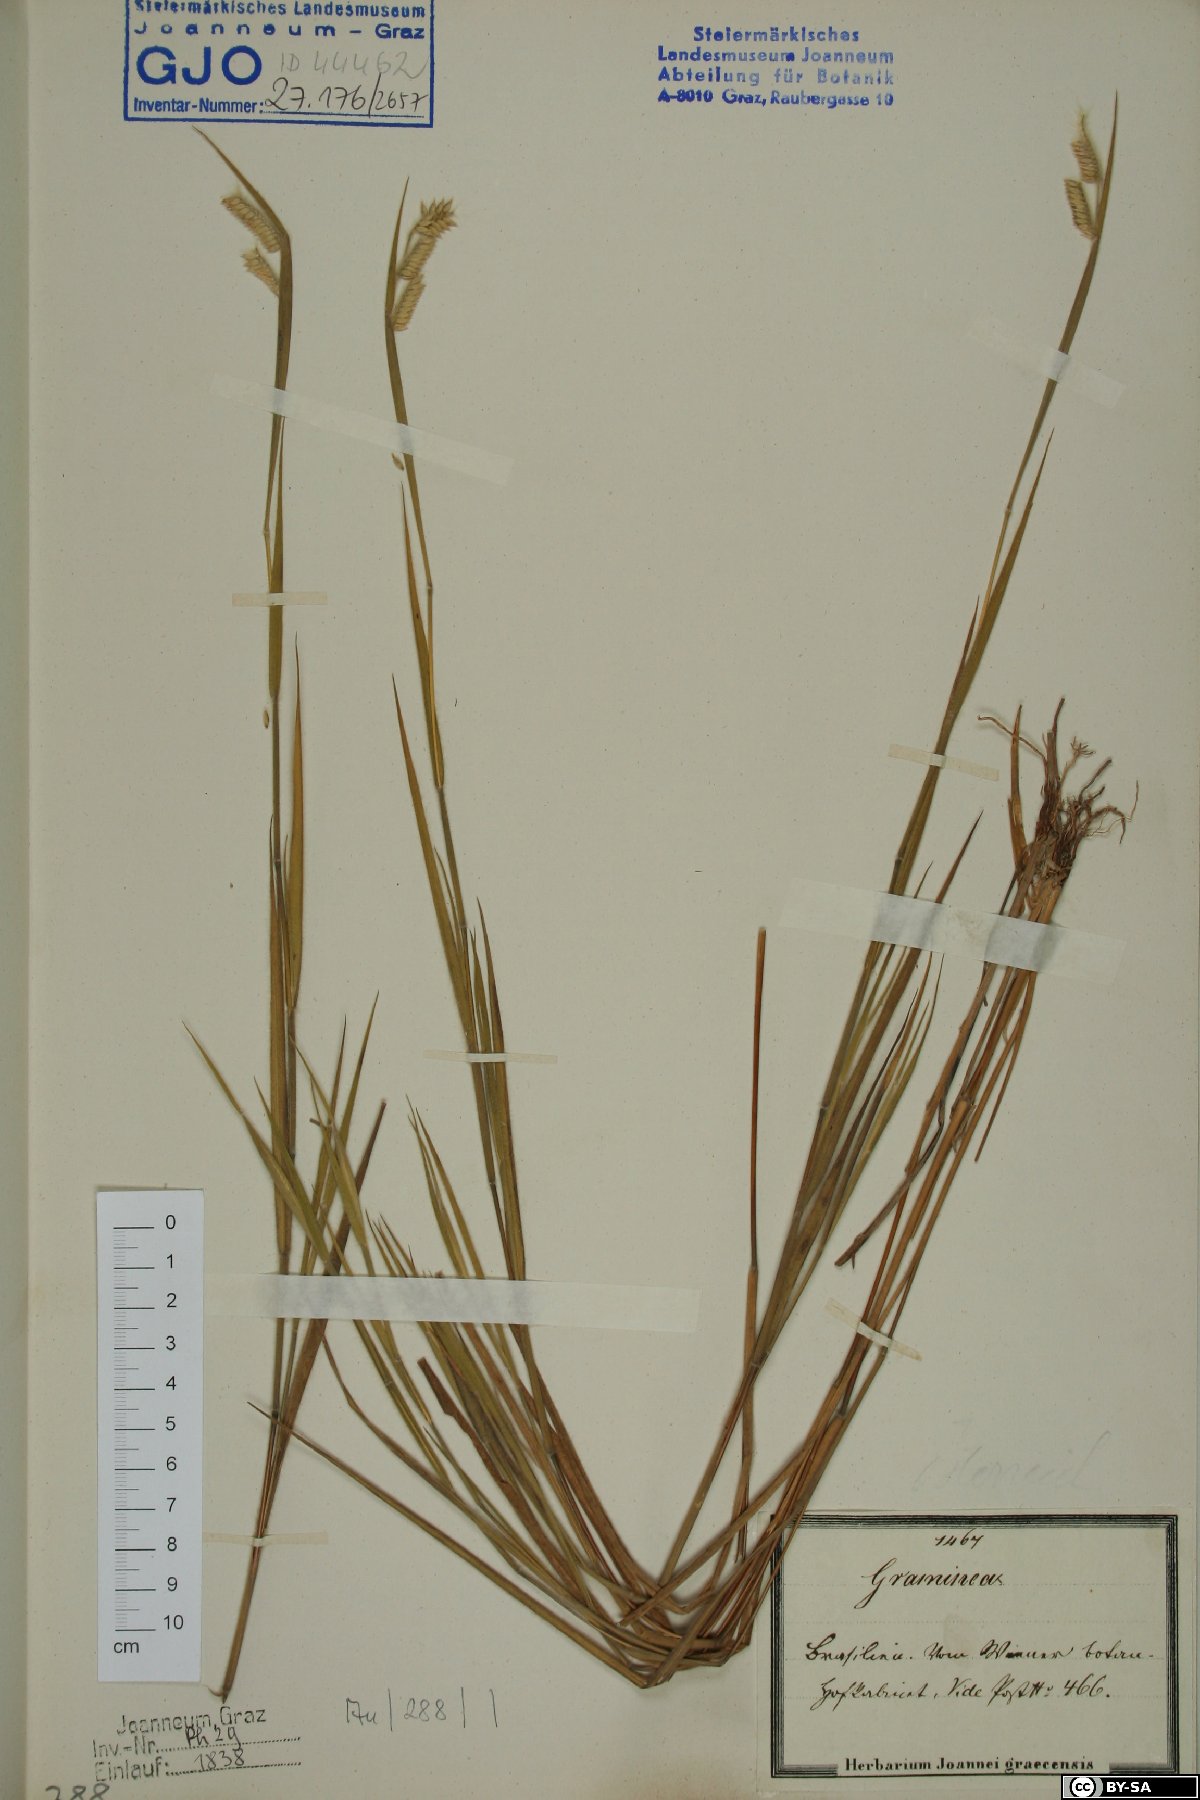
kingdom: Plantae
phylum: Tracheophyta
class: Liliopsida
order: Poales
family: Poaceae
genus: Chloris
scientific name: Chloris
